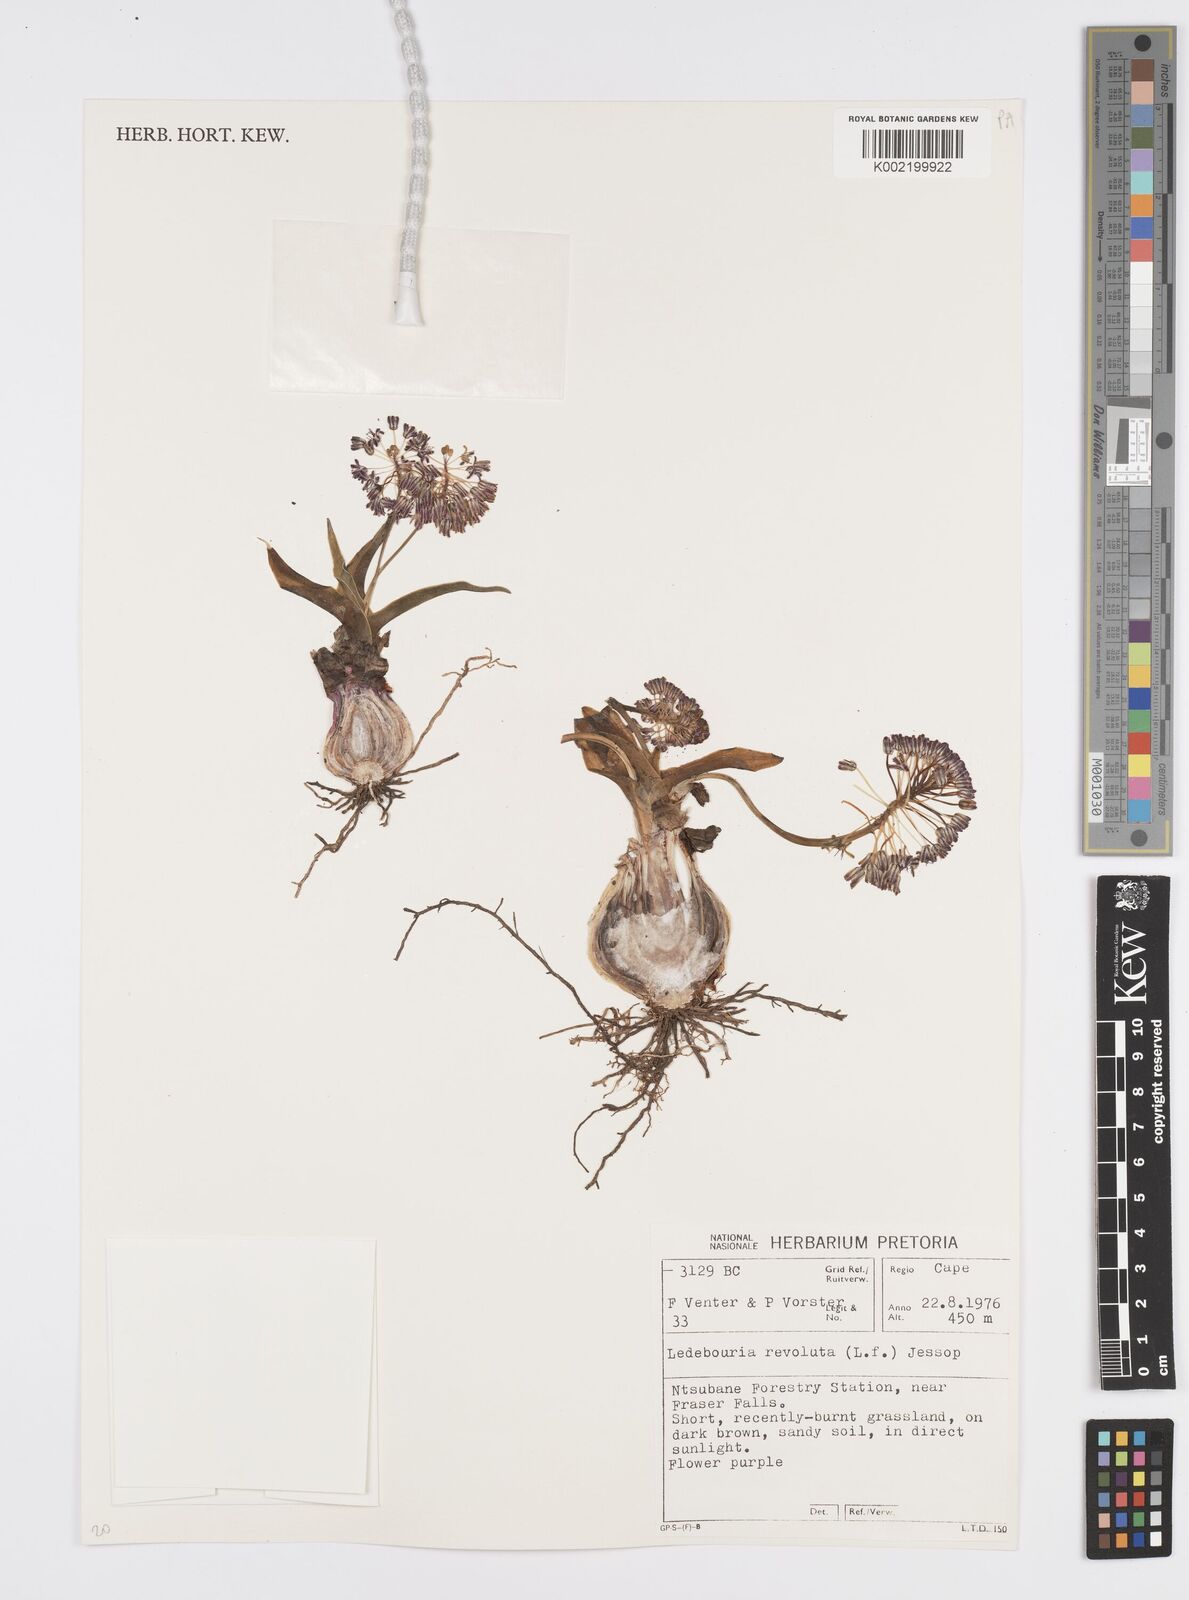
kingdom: Plantae
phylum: Tracheophyta
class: Liliopsida
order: Asparagales
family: Asparagaceae
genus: Ledebouria
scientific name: Ledebouria revoluta
